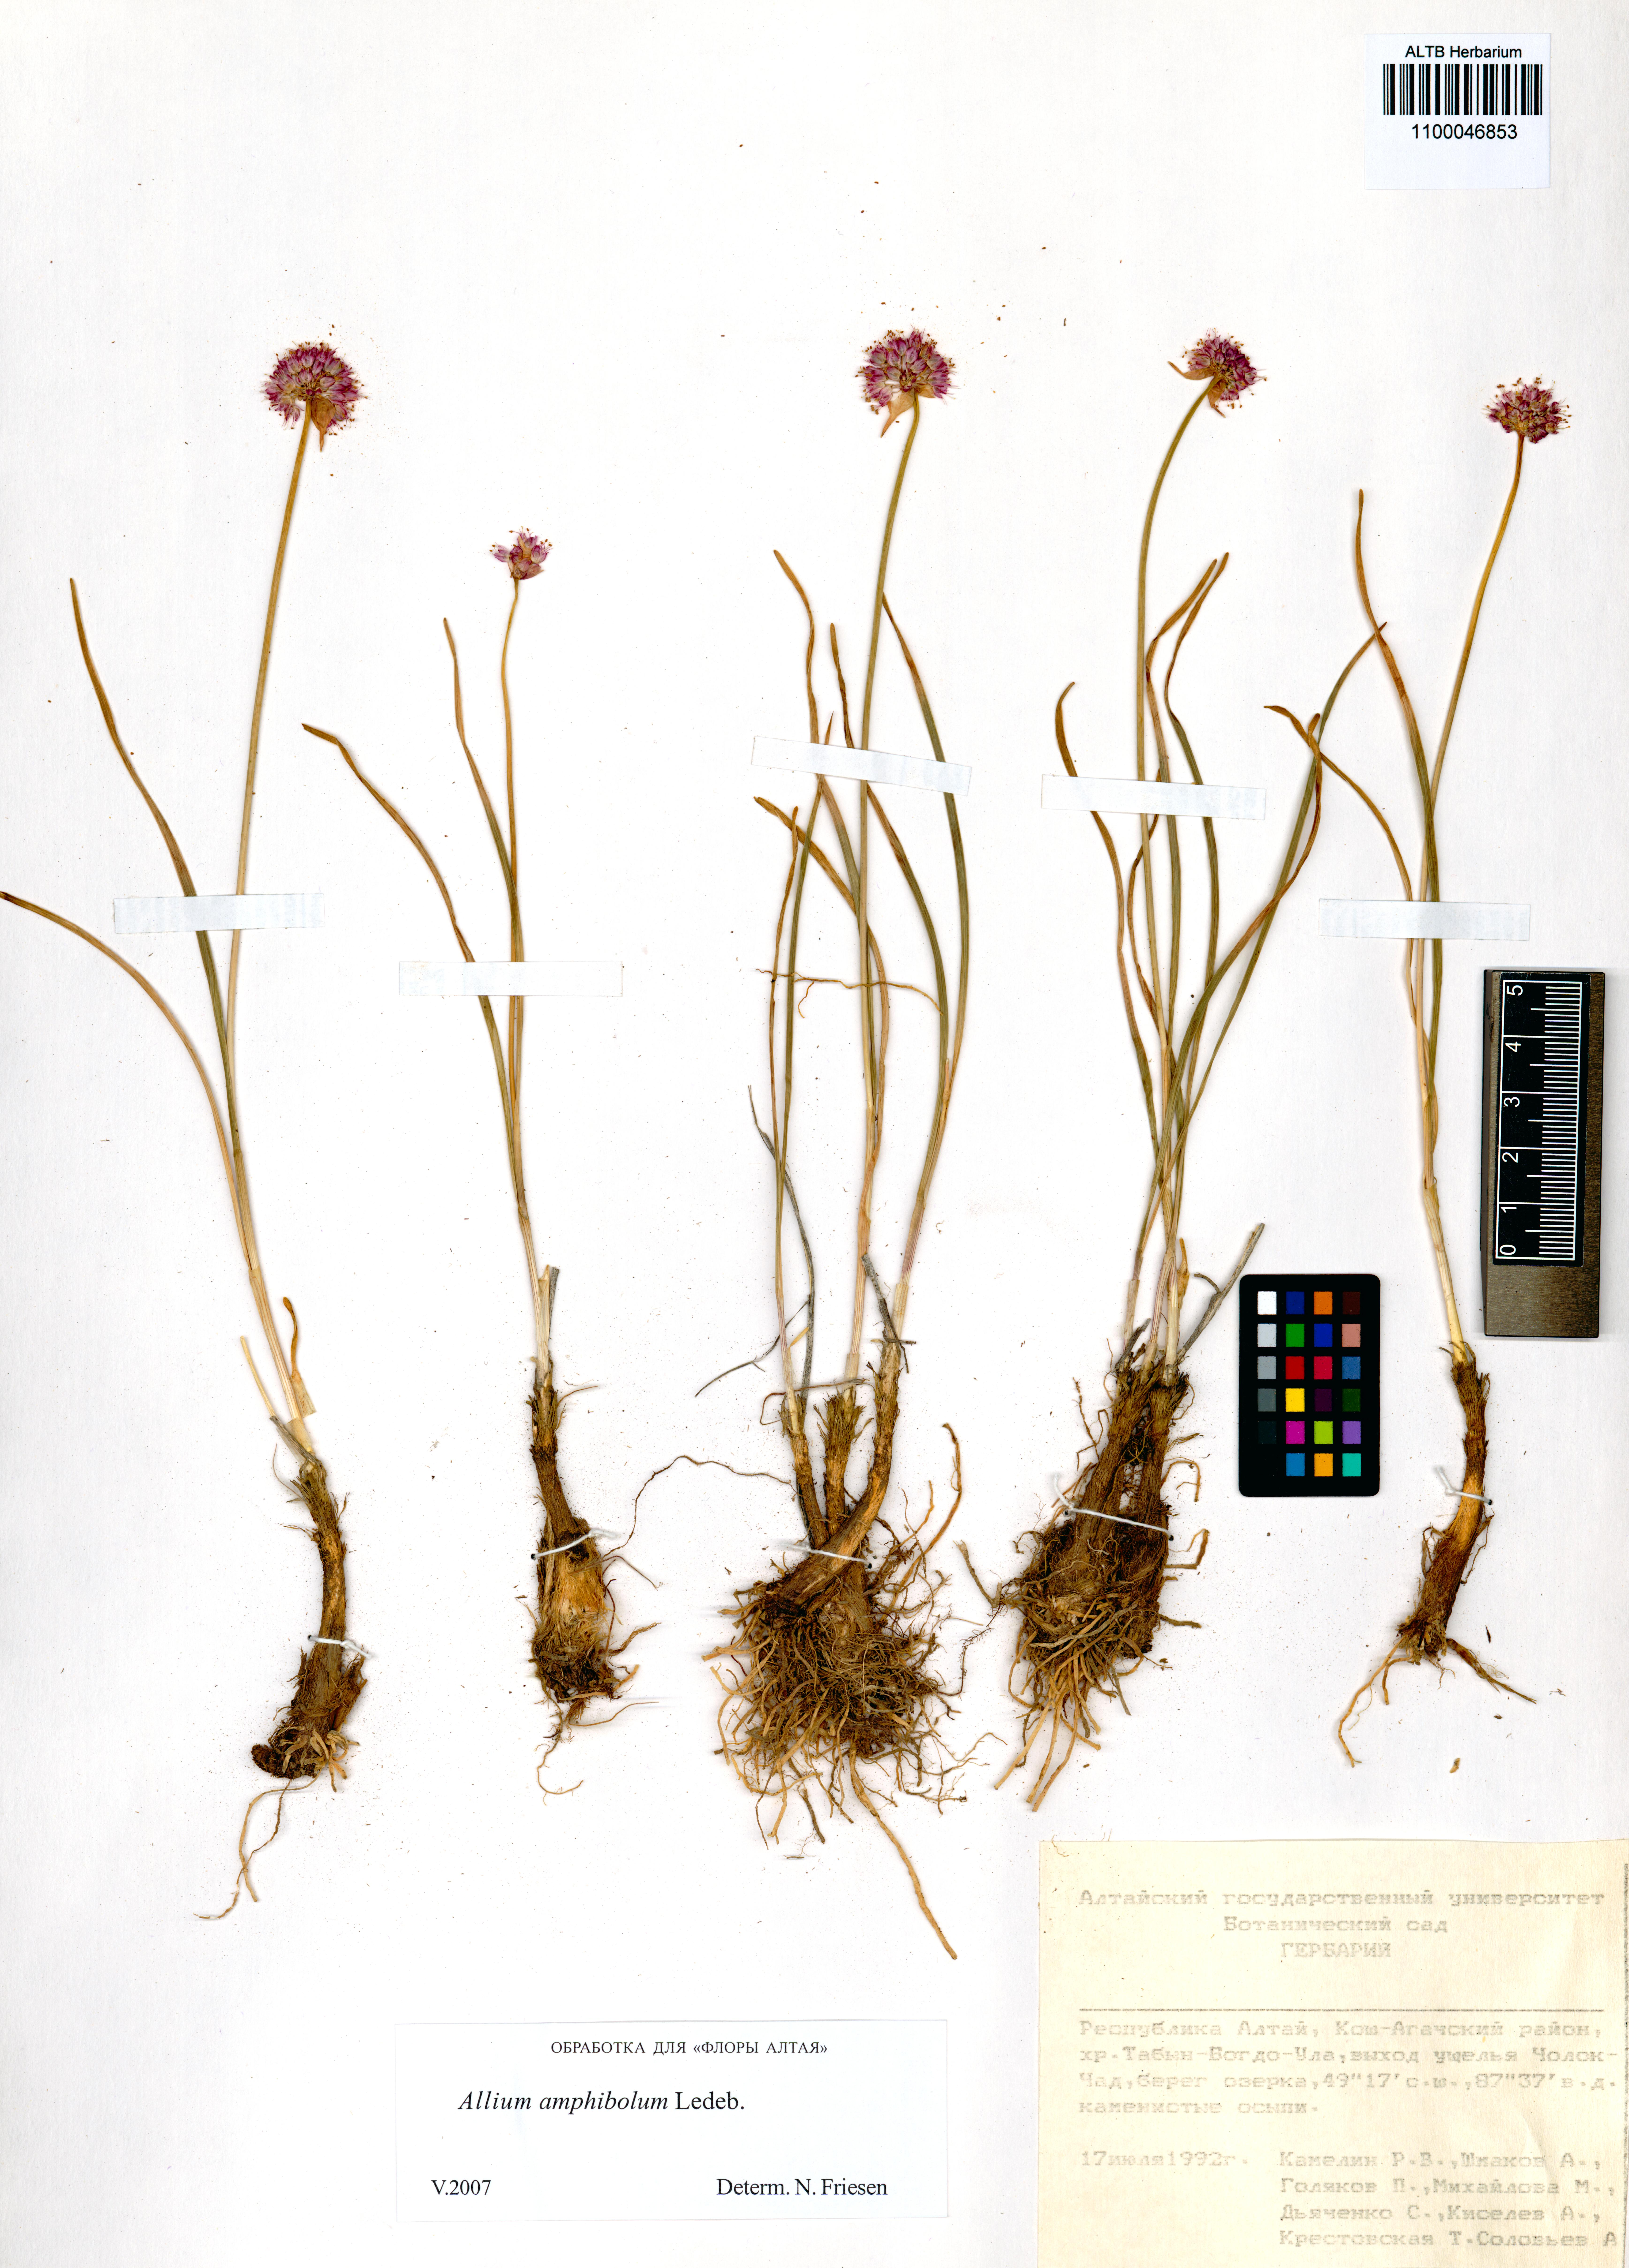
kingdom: Plantae
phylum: Tracheophyta
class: Liliopsida
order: Asparagales
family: Amaryllidaceae
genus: Allium
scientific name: Allium amphibolum
